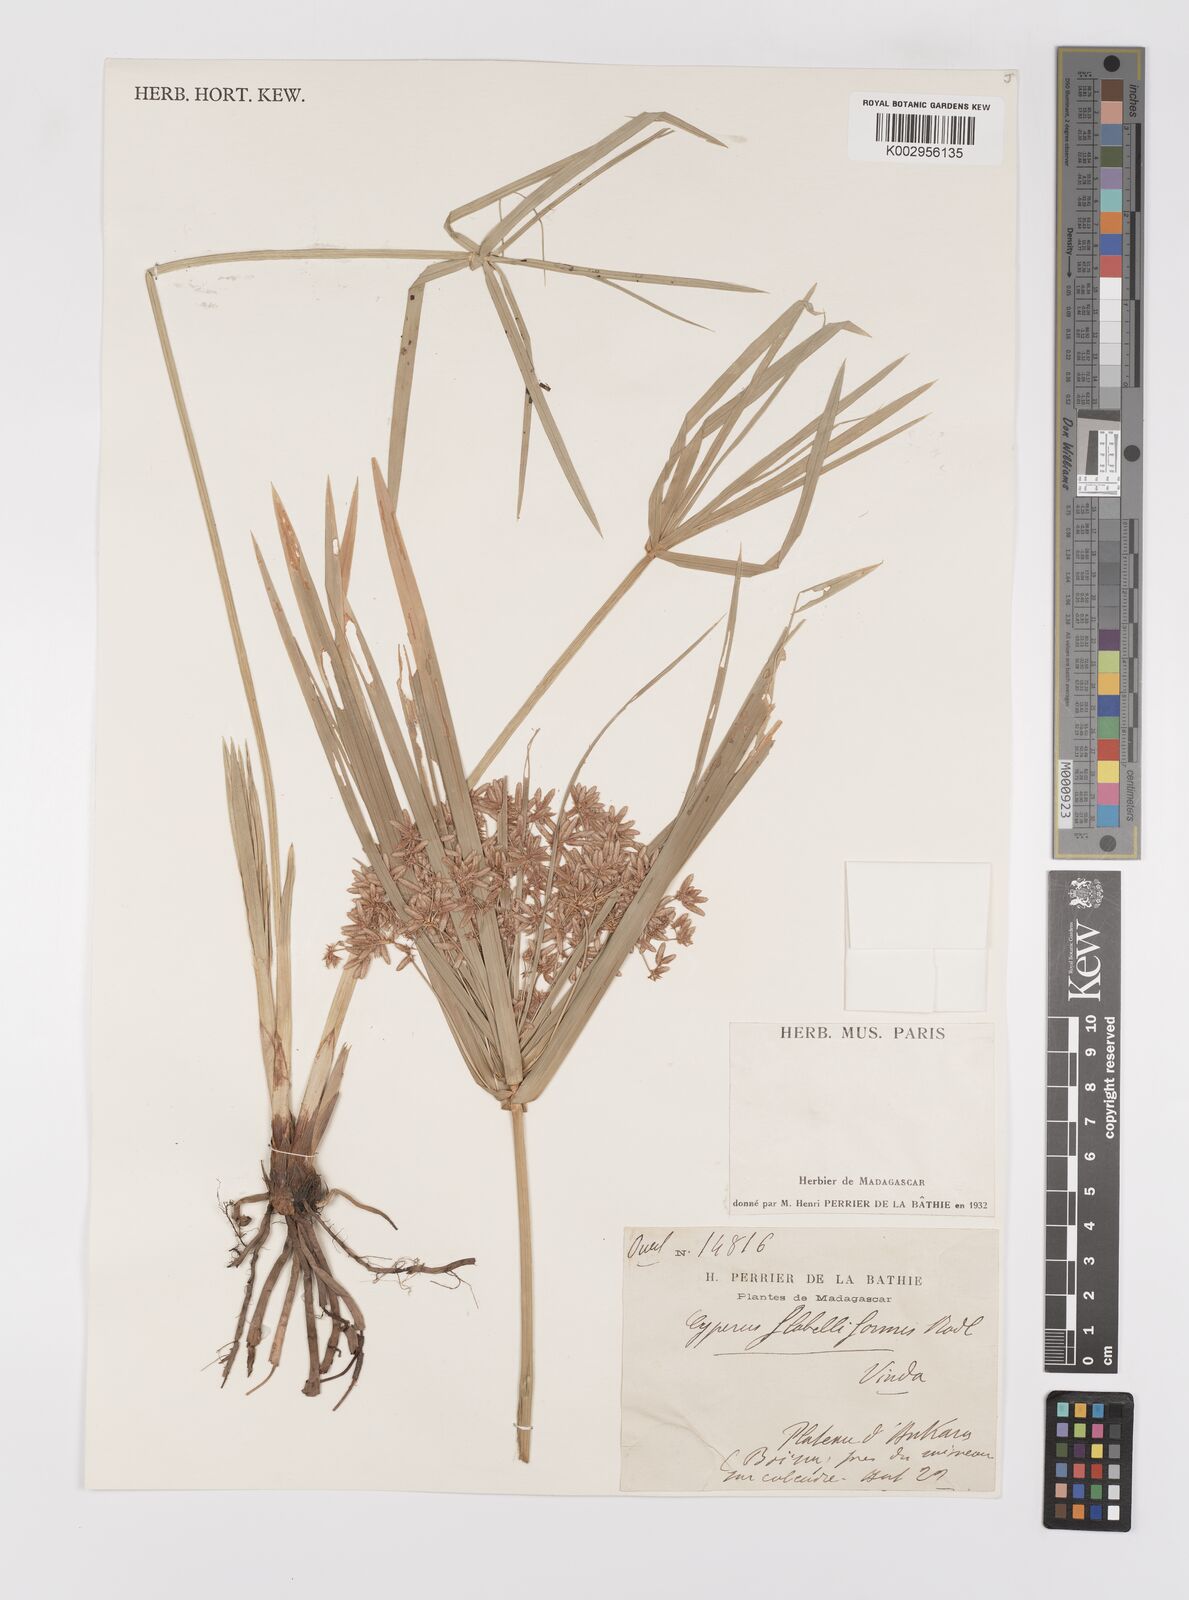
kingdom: Plantae
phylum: Tracheophyta
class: Liliopsida
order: Poales
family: Cyperaceae
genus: Cyperus
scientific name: Cyperus alternifolius
